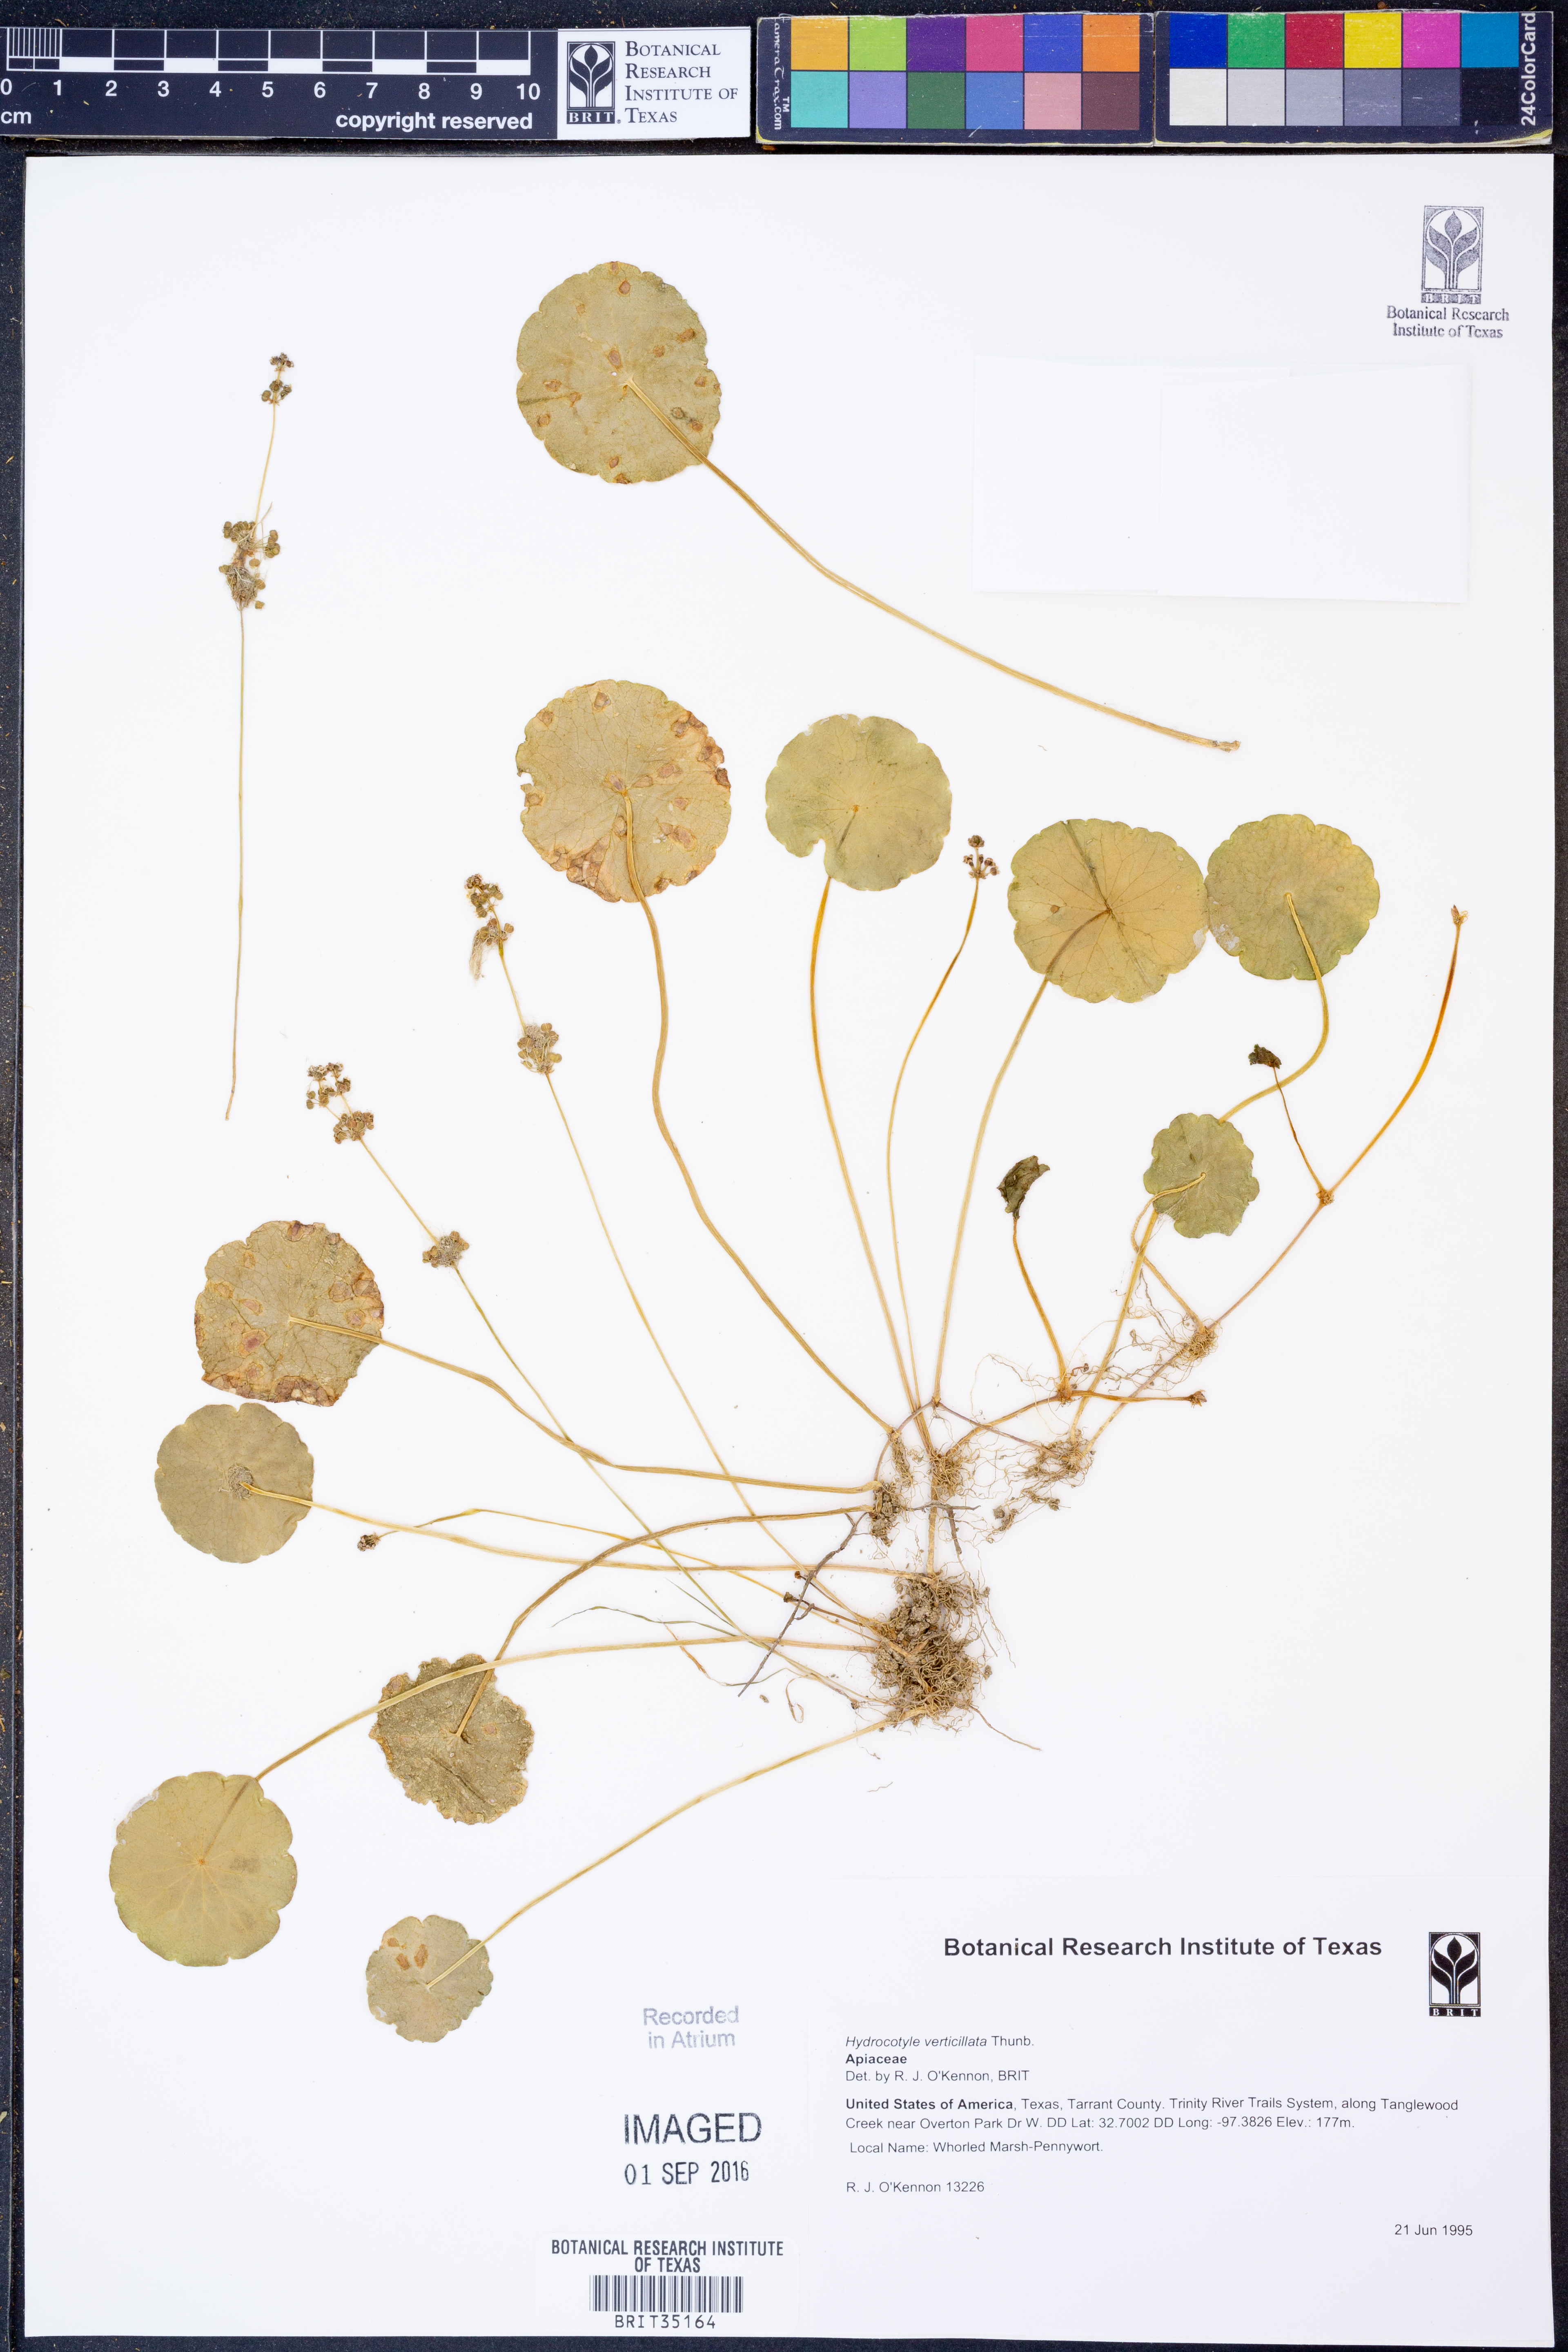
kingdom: Plantae
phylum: Tracheophyta
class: Magnoliopsida
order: Apiales
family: Araliaceae
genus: Hydrocotyle
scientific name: Hydrocotyle verticillata
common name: Whorled marshpennywort
